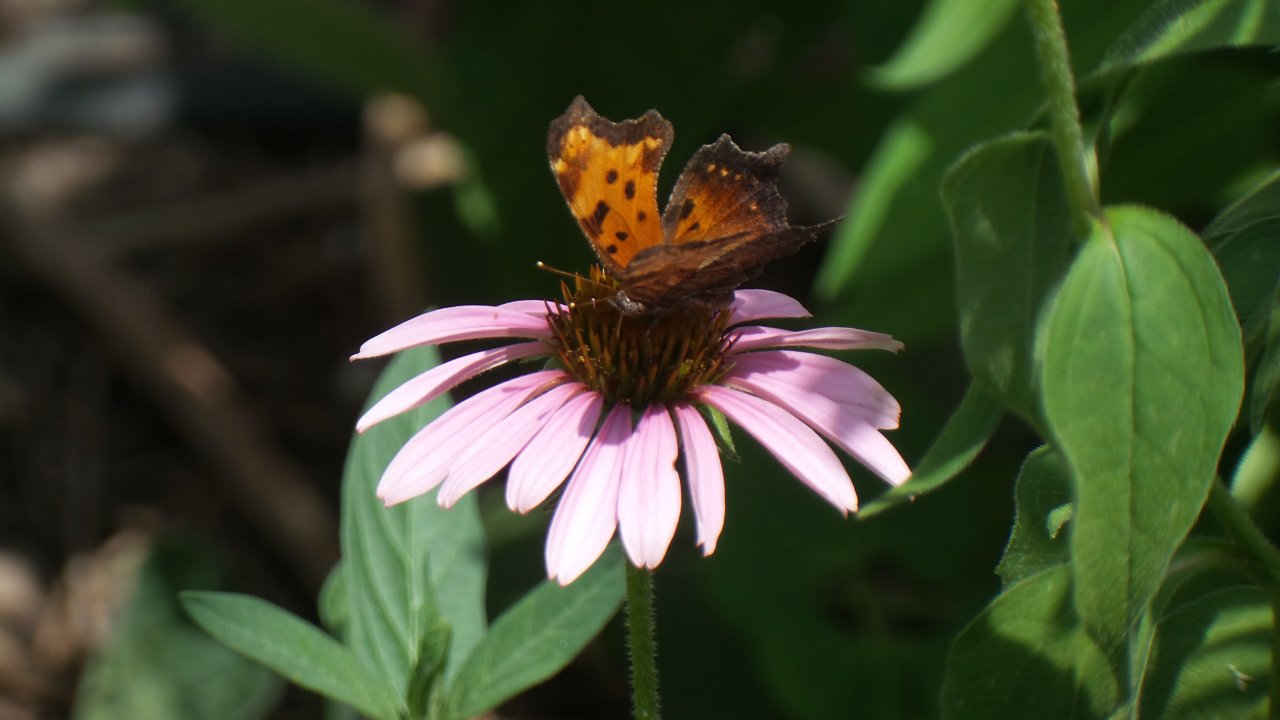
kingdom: Animalia
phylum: Arthropoda
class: Insecta
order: Lepidoptera
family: Nymphalidae
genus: Polygonia
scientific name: Polygonia progne
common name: Gray Comma
